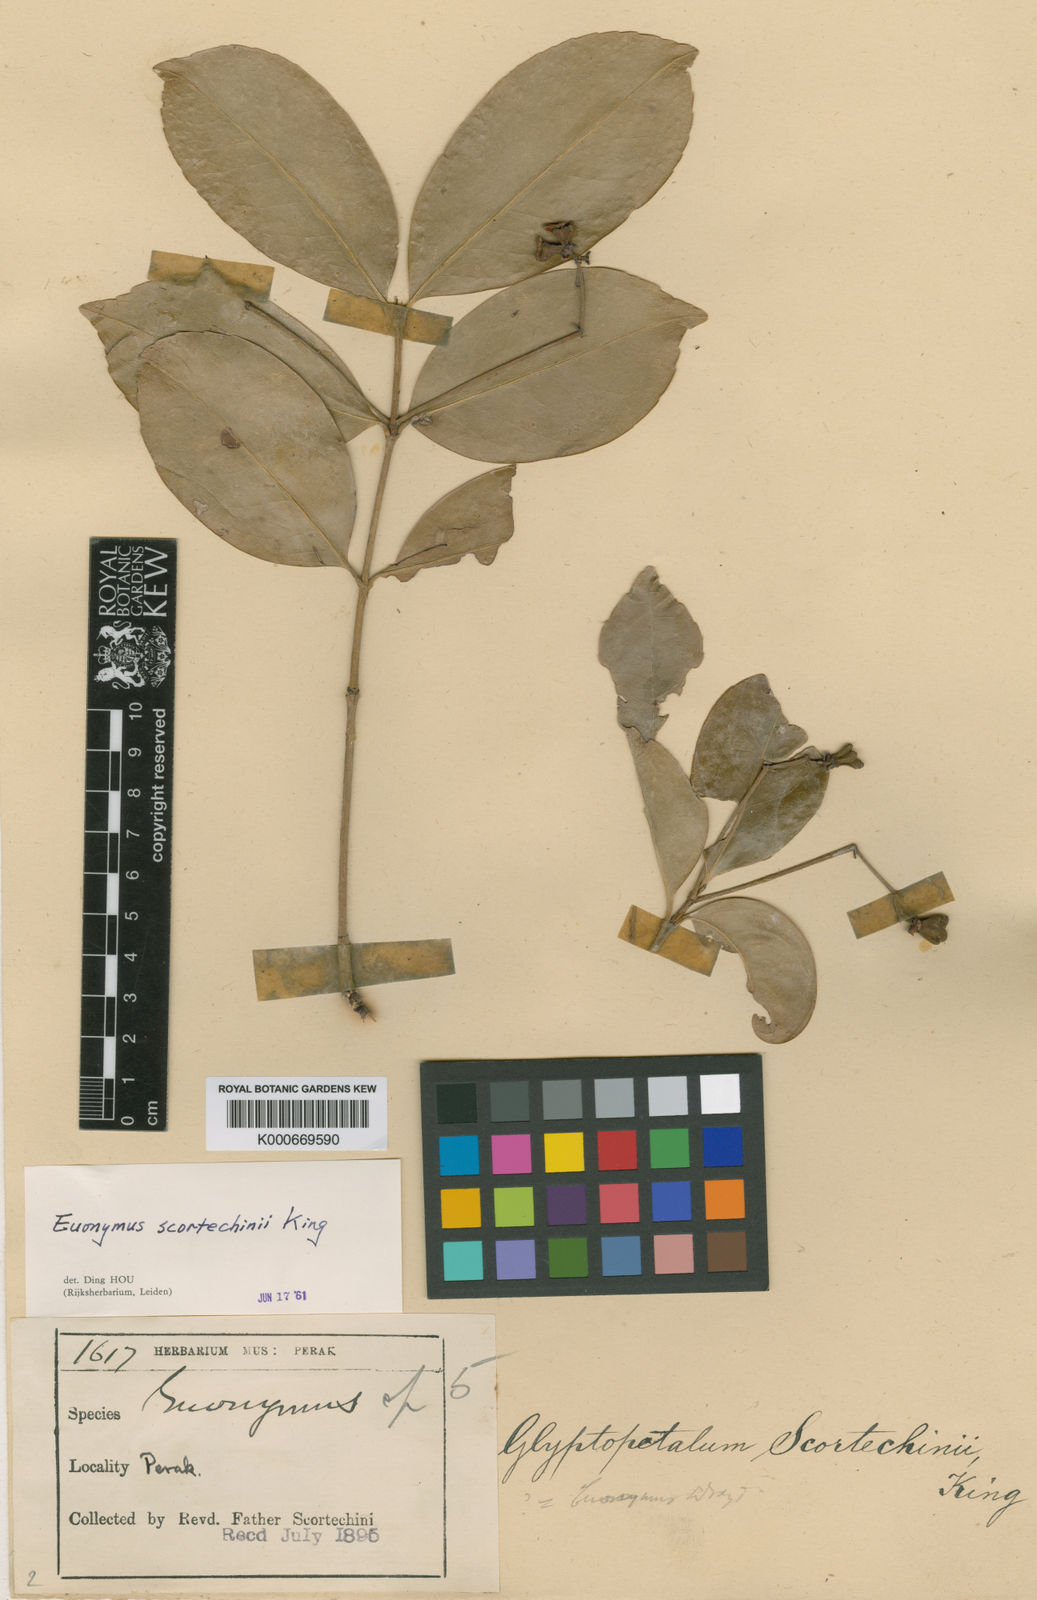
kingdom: Plantae
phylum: Tracheophyta
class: Magnoliopsida
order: Celastrales
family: Celastraceae
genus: Euonymus
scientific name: Euonymus cochinchinensis
